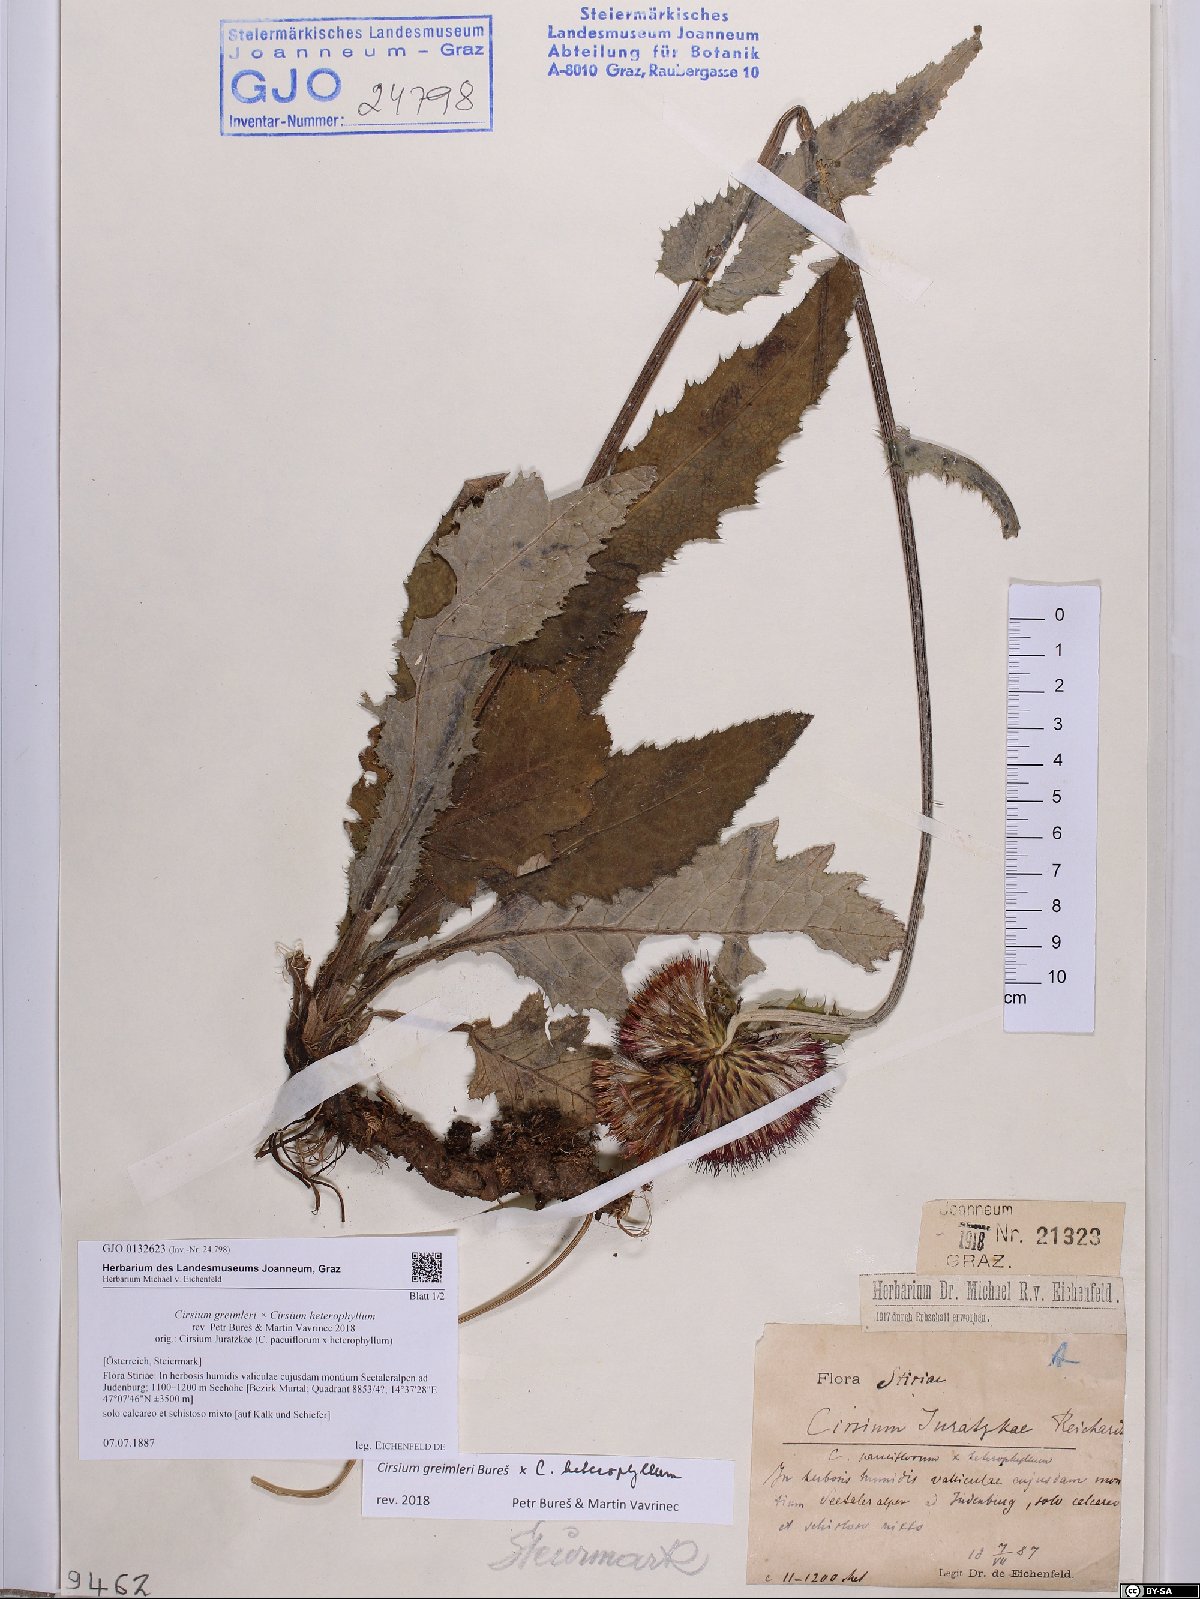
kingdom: Plantae
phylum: Tracheophyta
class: Magnoliopsida
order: Asterales
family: Asteraceae
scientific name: Asteraceae
